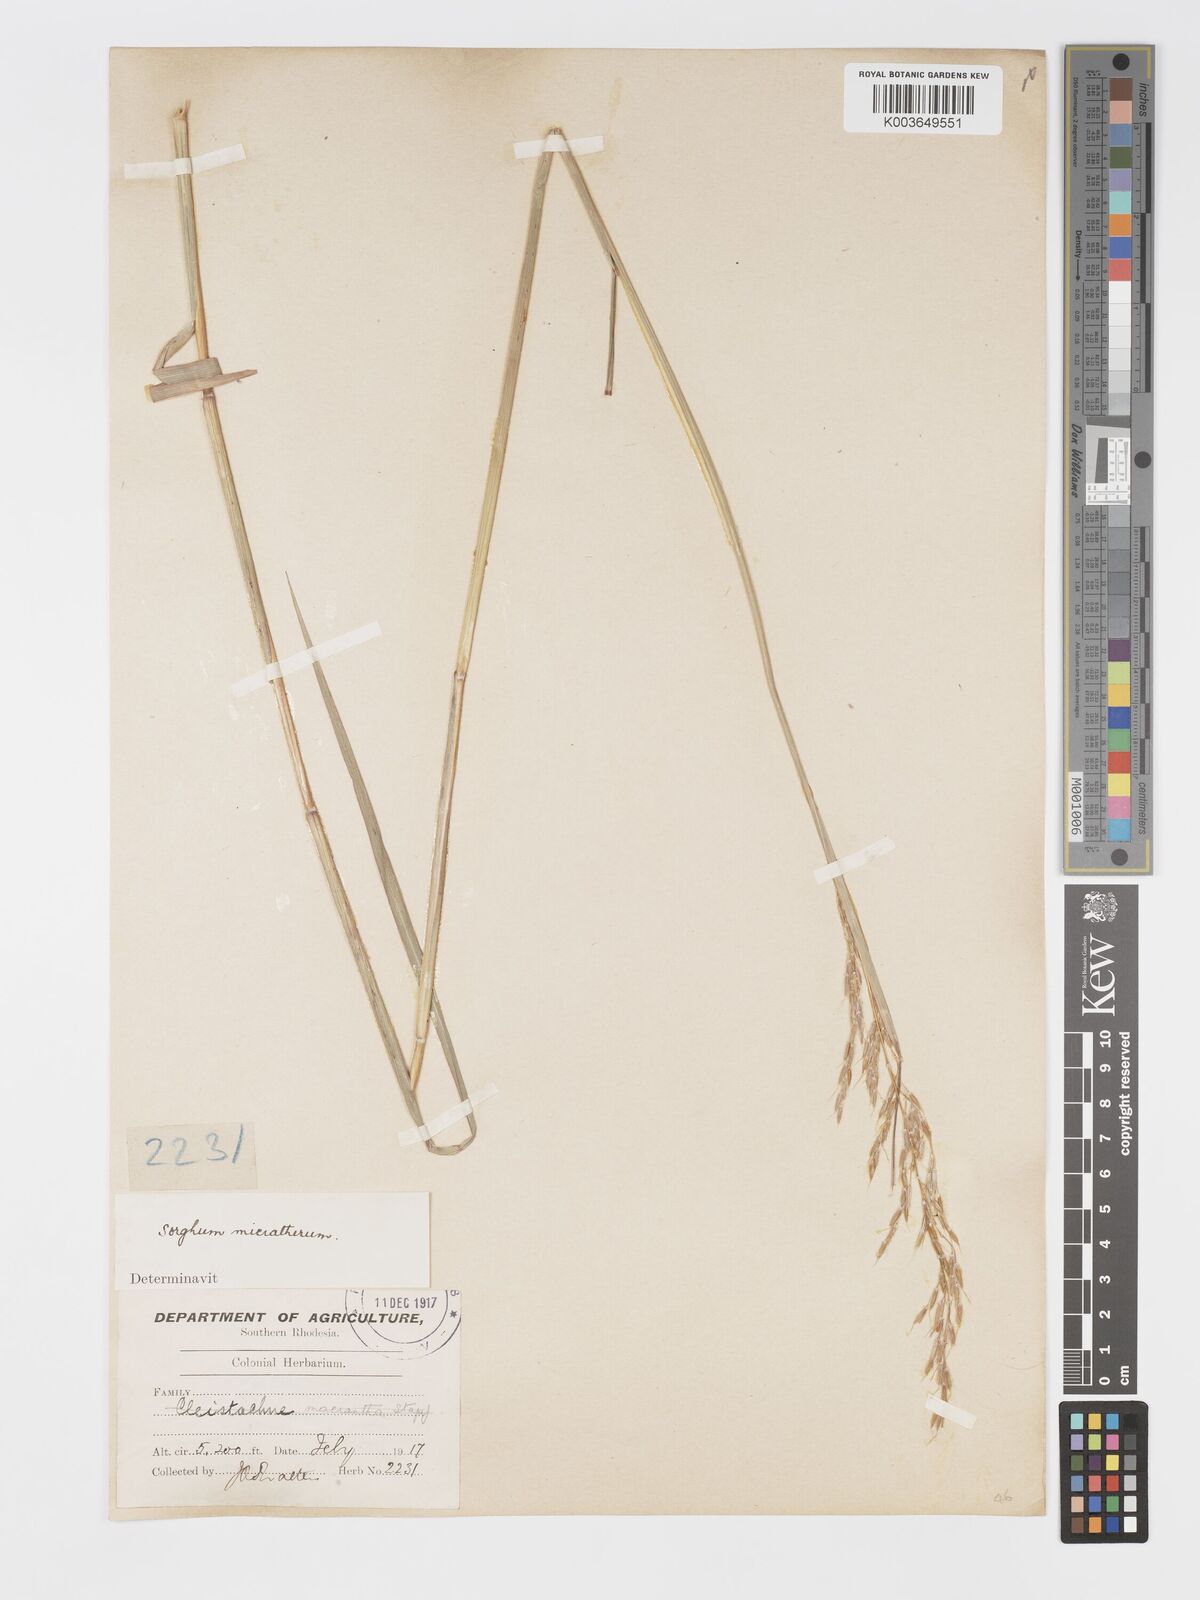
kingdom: Plantae
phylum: Tracheophyta
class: Liliopsida
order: Poales
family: Poaceae
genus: Sorghastrum
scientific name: Sorghastrum nudipes
